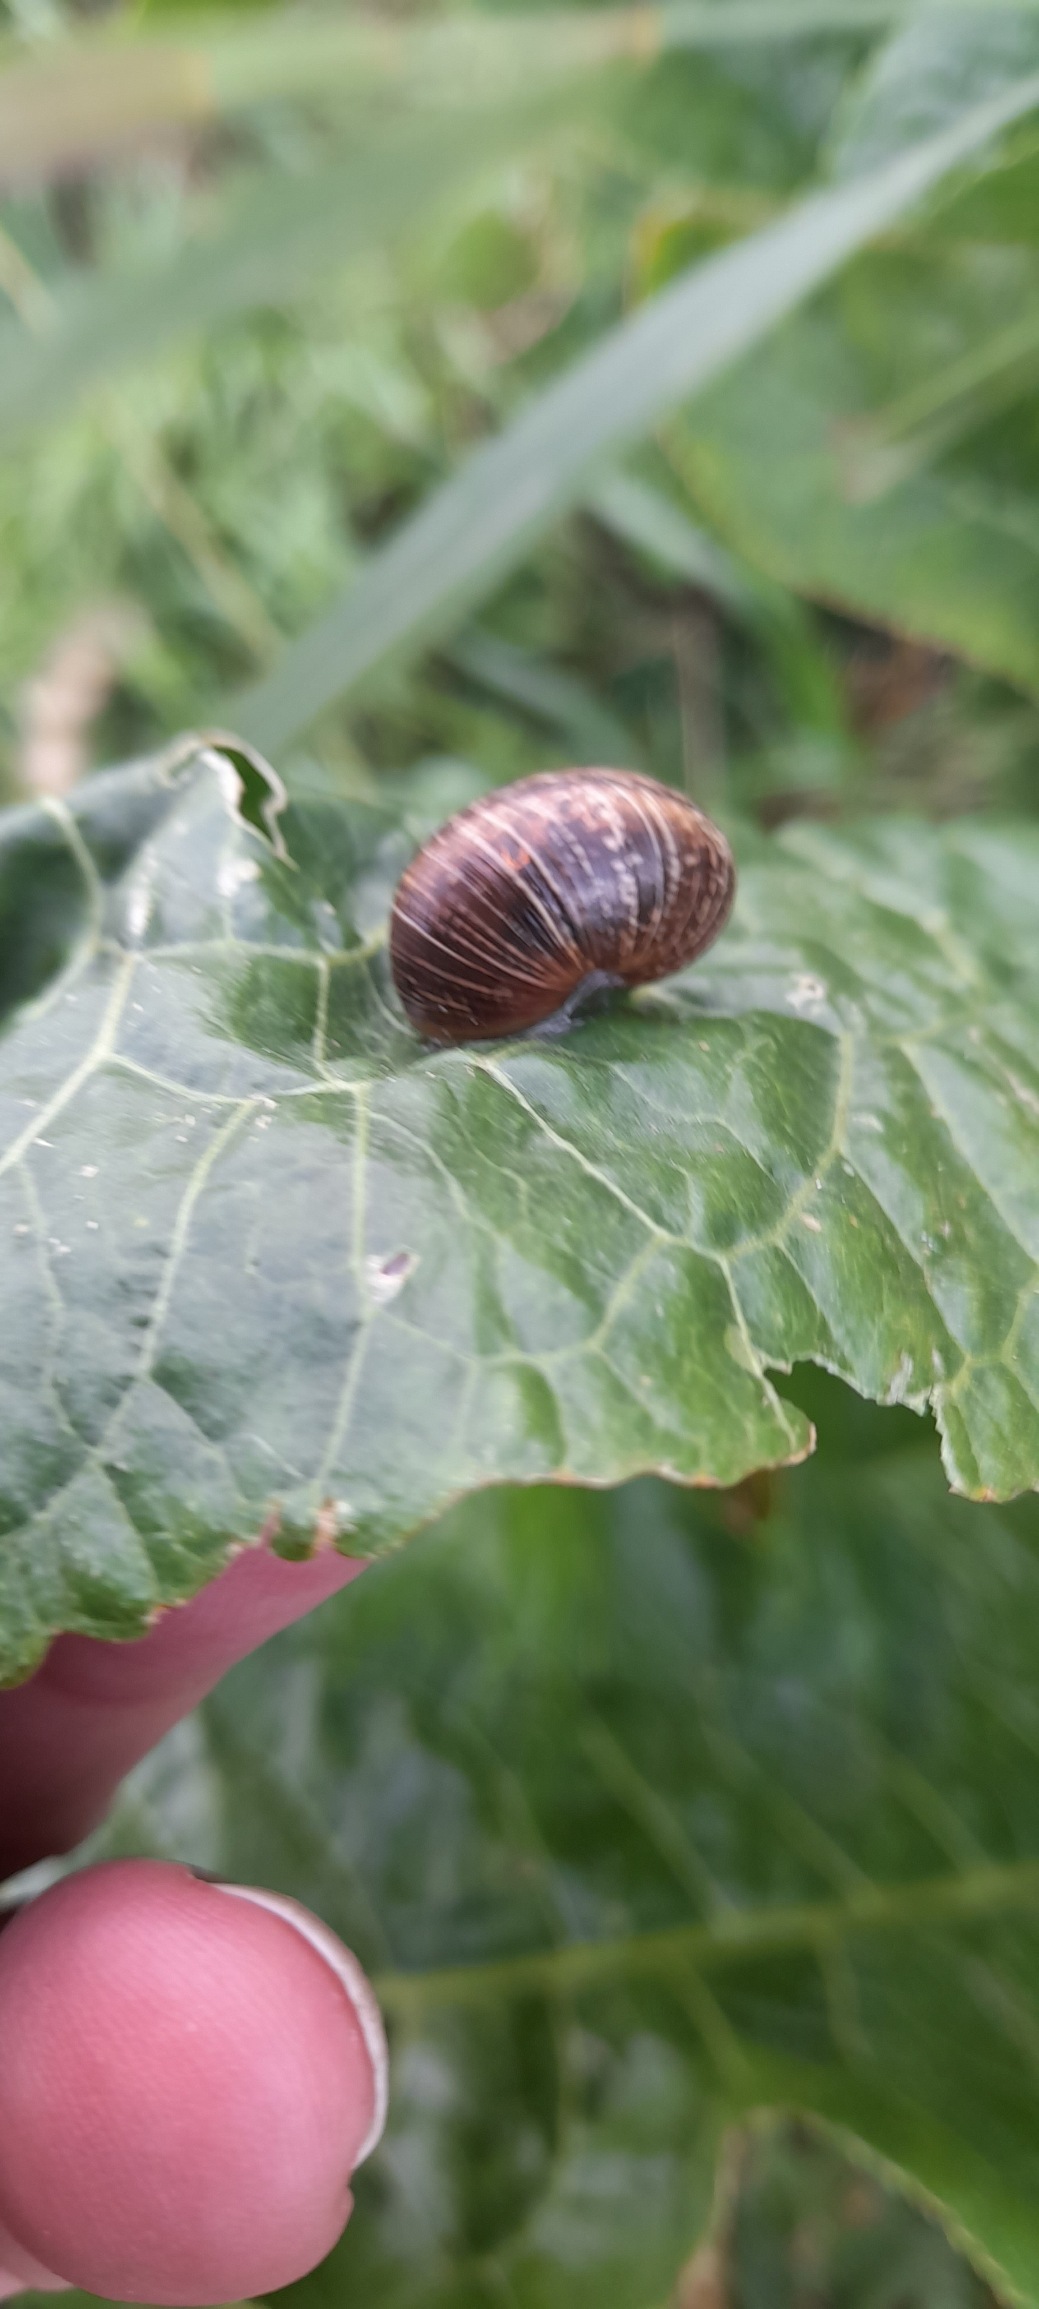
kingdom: Animalia
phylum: Mollusca
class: Gastropoda
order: Stylommatophora
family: Helicidae
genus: Arianta
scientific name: Arianta arbustorum
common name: Kratsnegl
